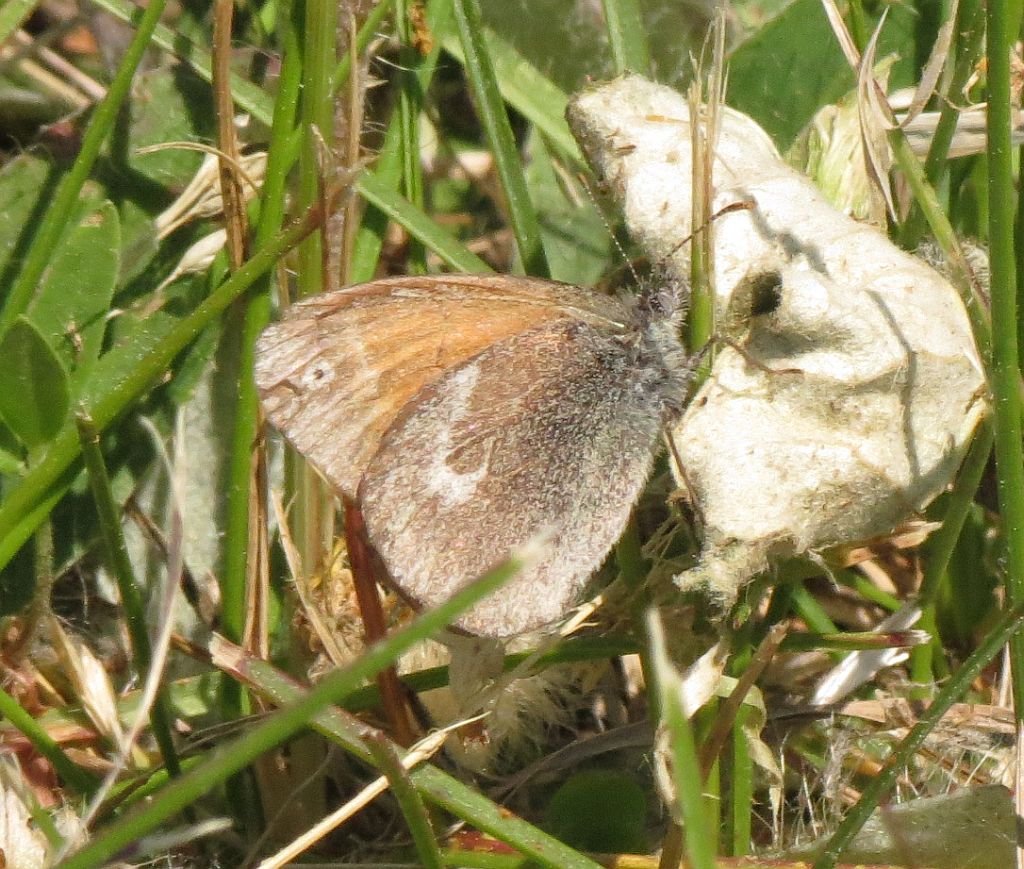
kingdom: Animalia
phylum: Arthropoda
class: Insecta
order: Lepidoptera
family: Nymphalidae
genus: Coenonympha
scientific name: Coenonympha tullia
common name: Large Heath
